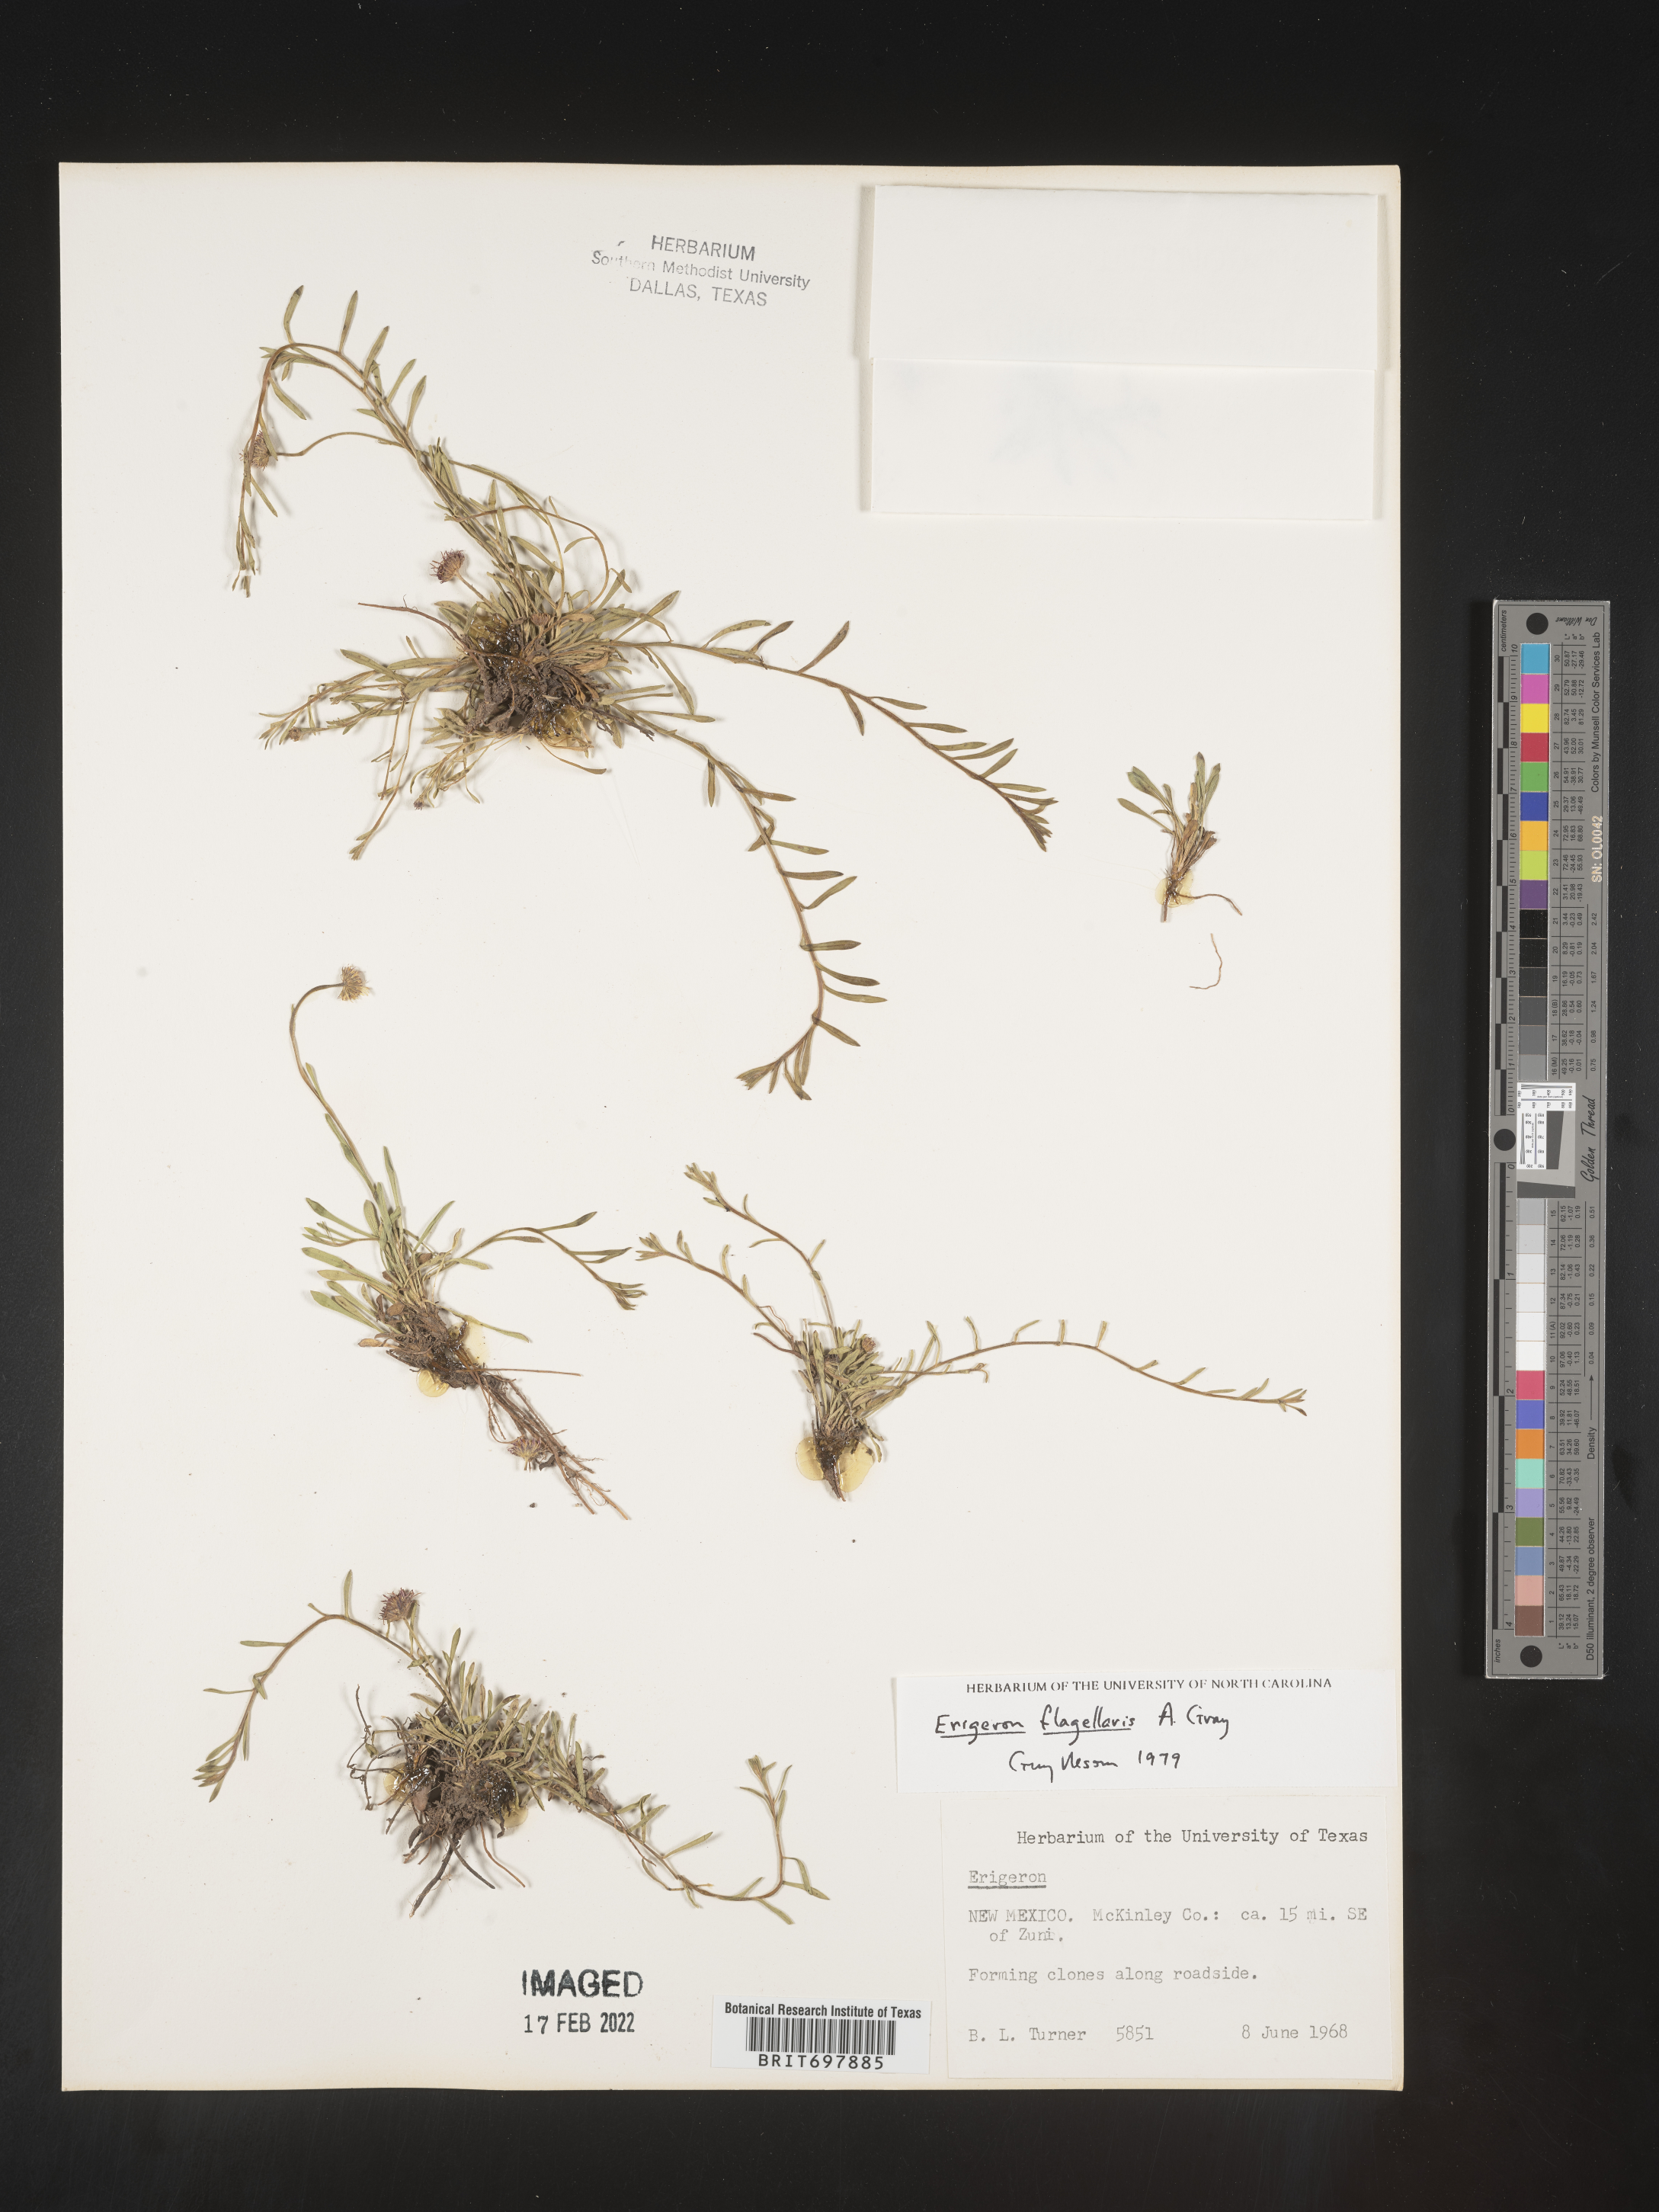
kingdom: Plantae
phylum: Tracheophyta
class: Magnoliopsida
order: Asterales
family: Asteraceae
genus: Erigeron
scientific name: Erigeron flagellaris
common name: Running fleabane
